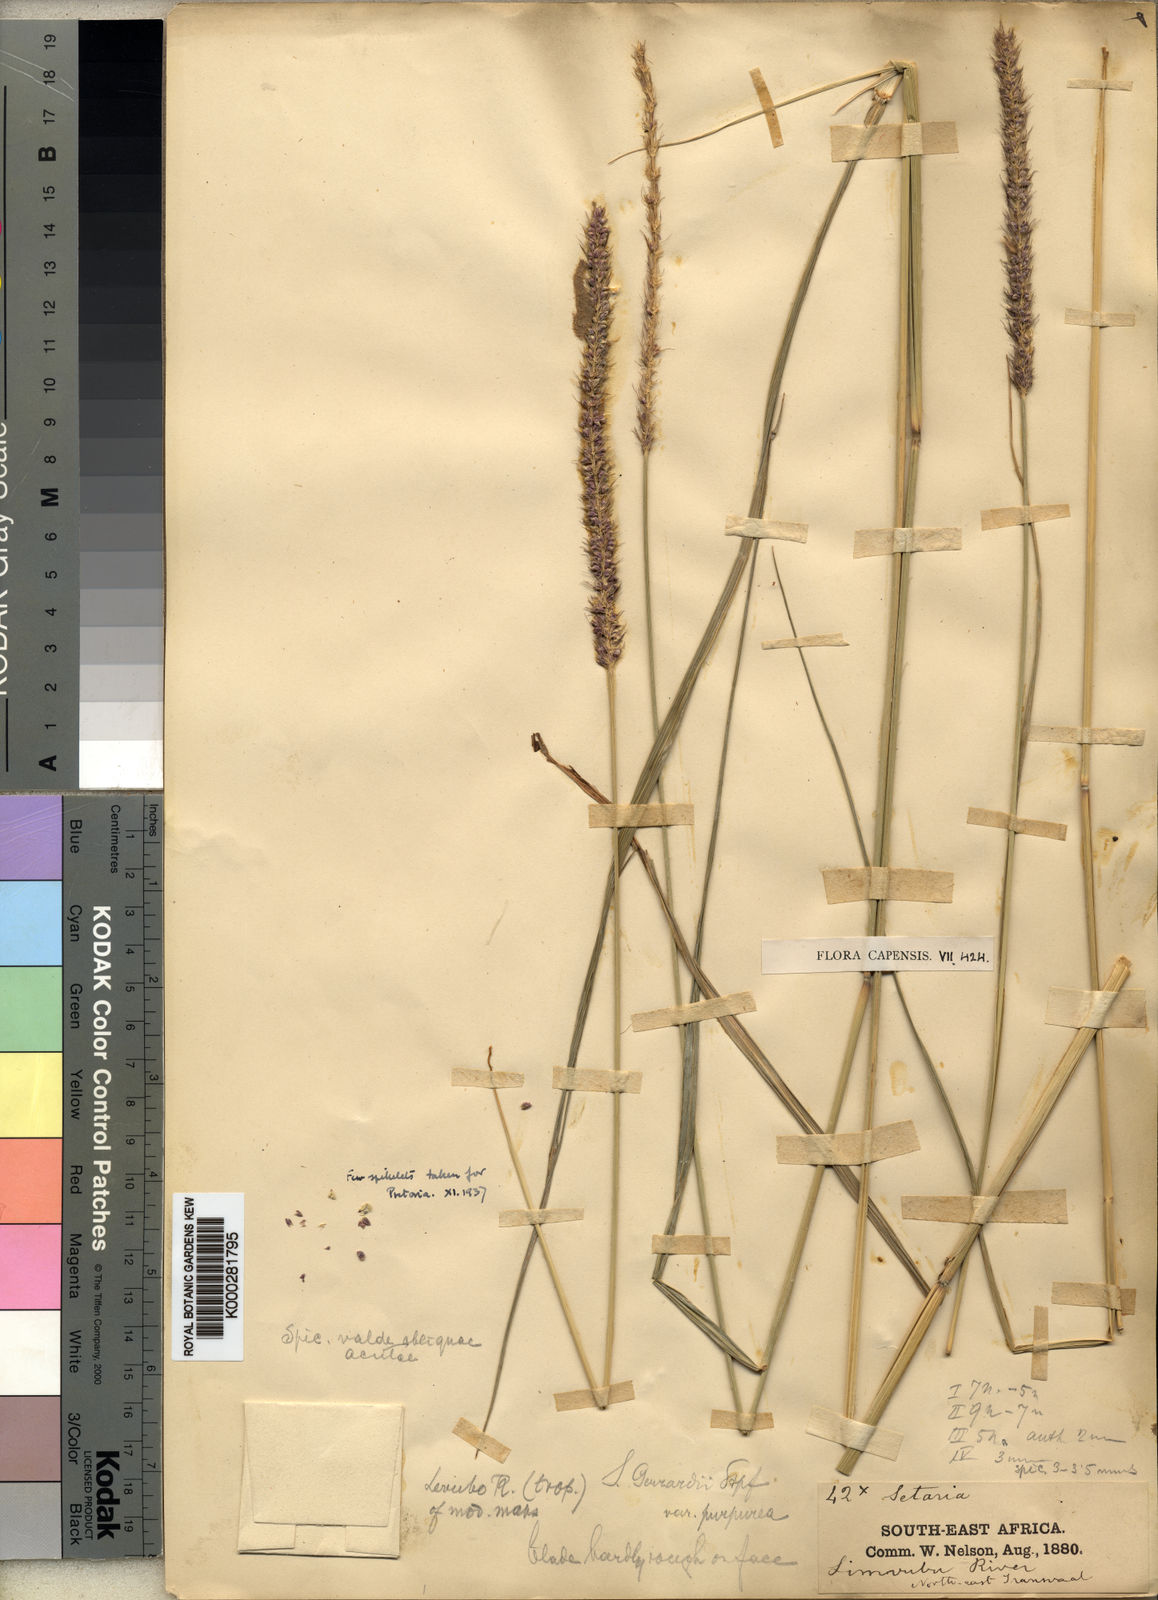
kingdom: Plantae
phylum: Tracheophyta
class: Liliopsida
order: Poales
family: Poaceae
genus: Setaria
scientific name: Setaria incrassata
